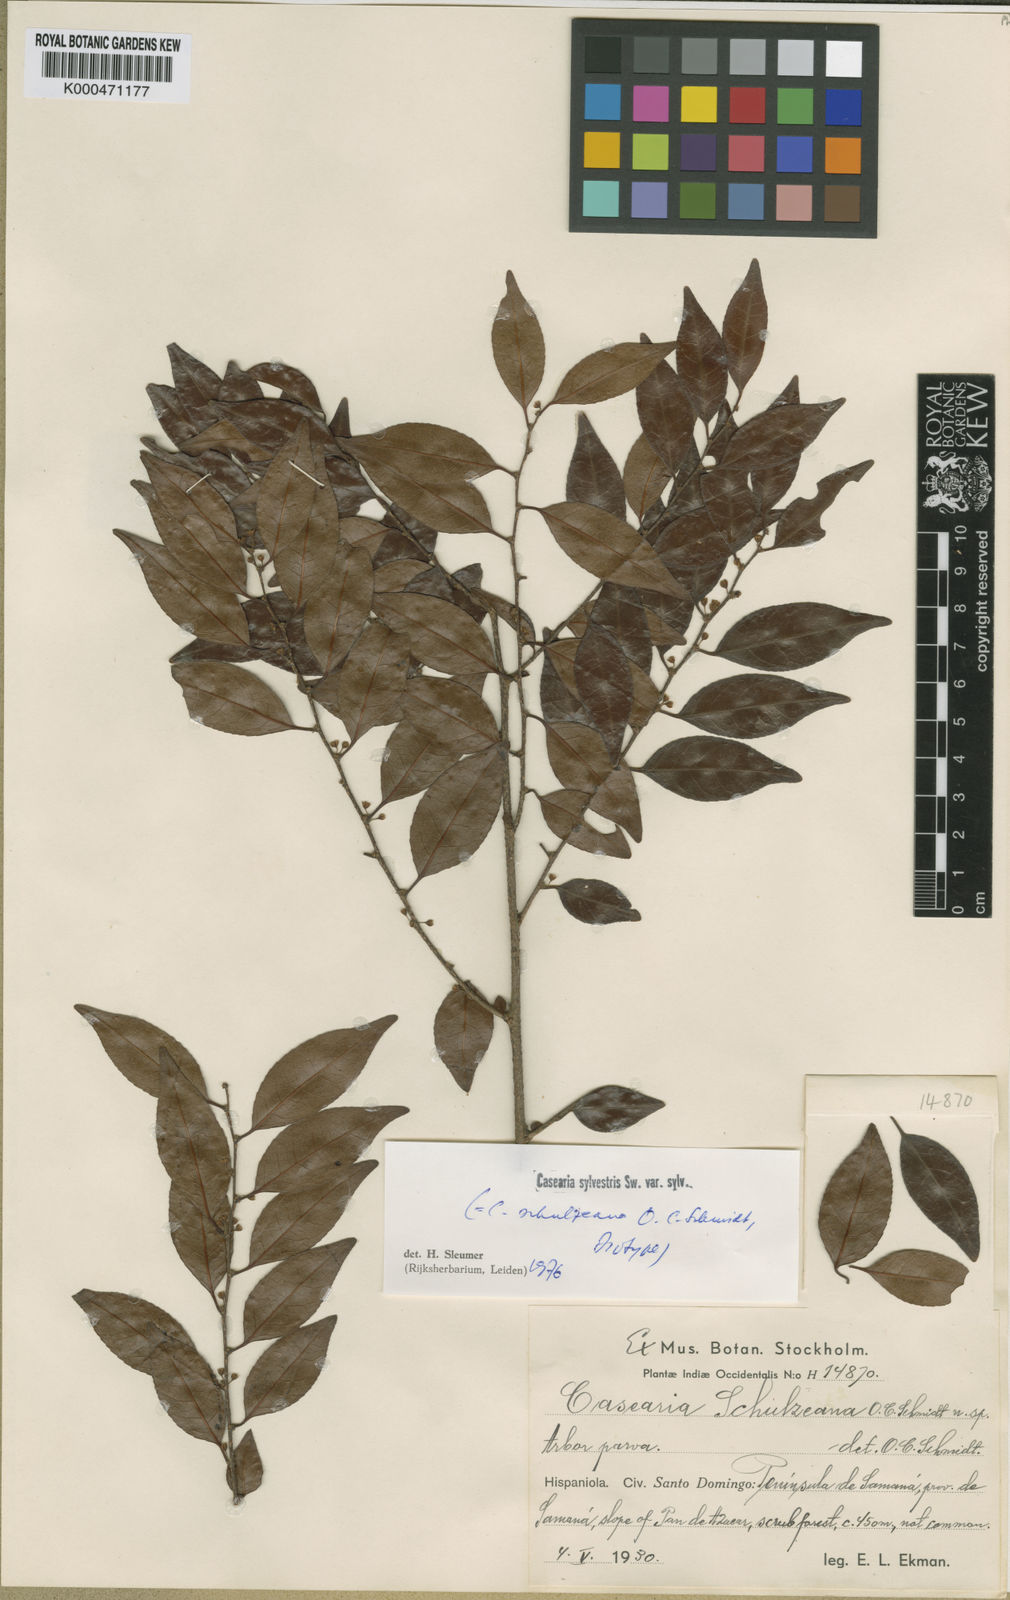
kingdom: Plantae
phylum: Tracheophyta
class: Magnoliopsida
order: Malpighiales
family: Salicaceae
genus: Casearia
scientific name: Casearia sylvestris
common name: Wild sage
